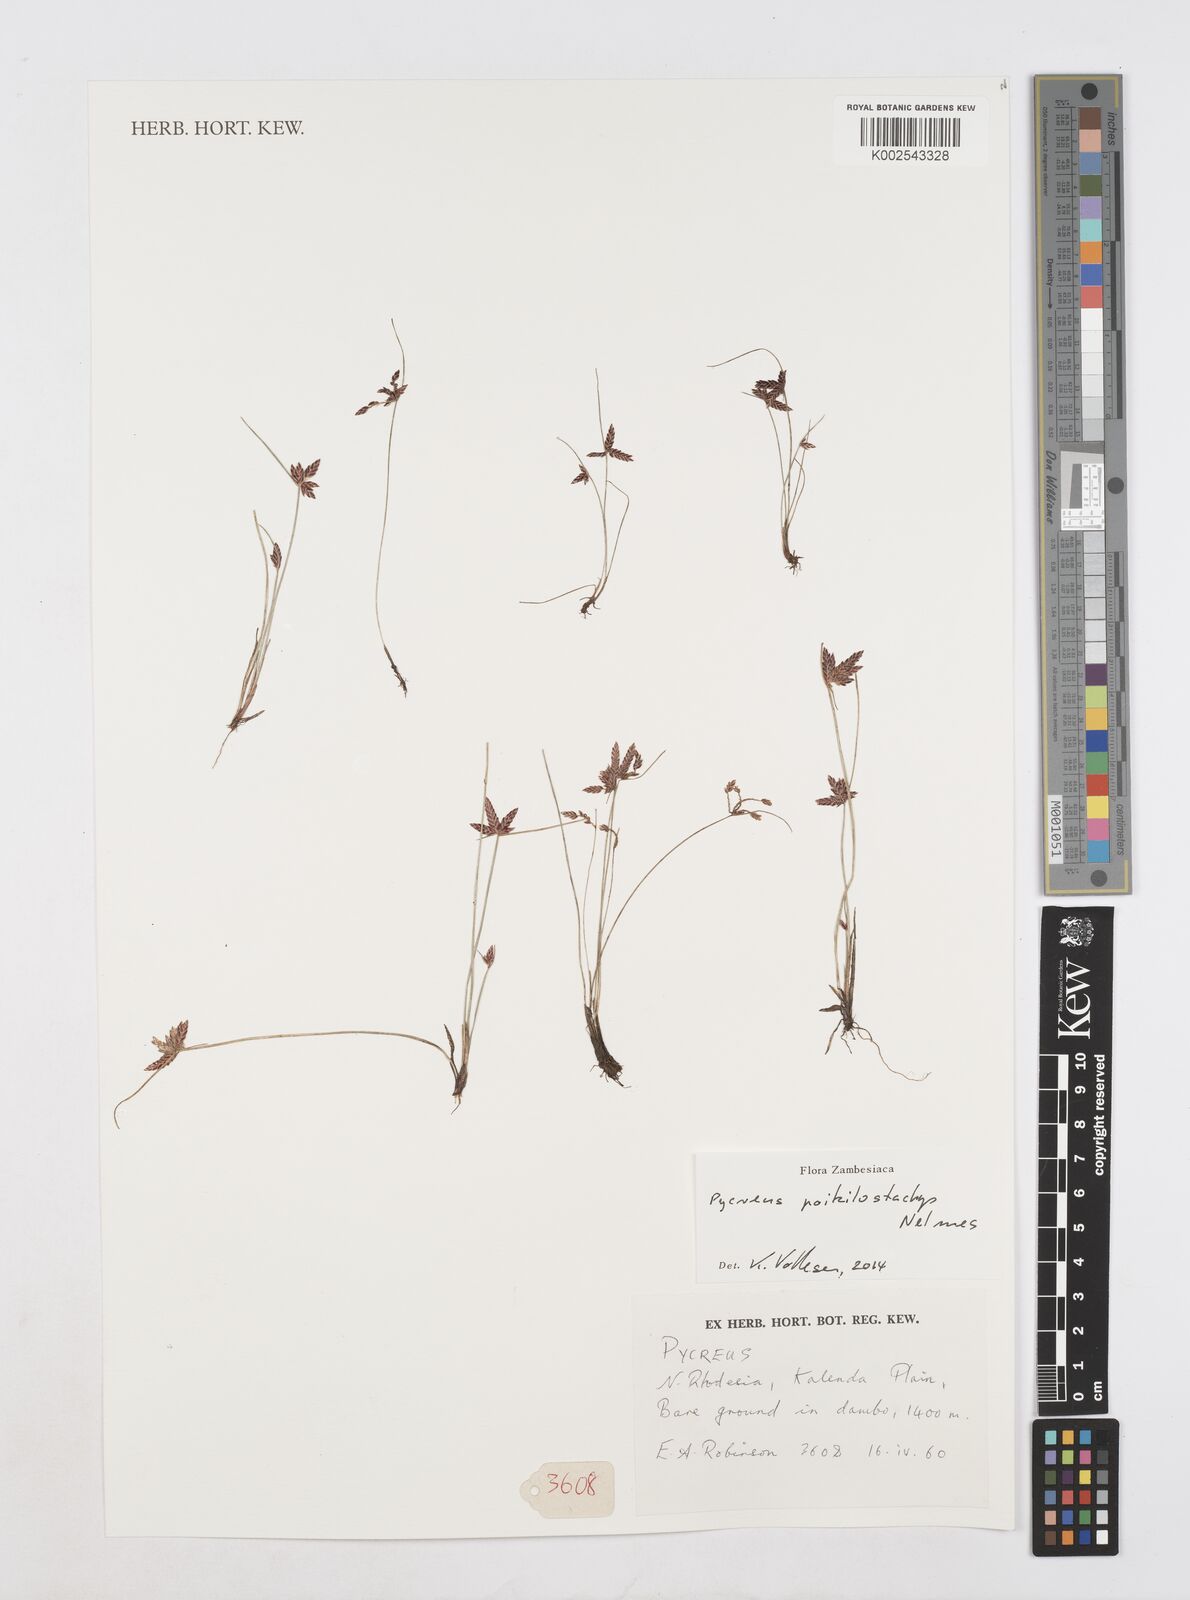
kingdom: Plantae
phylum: Tracheophyta
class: Liliopsida
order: Poales
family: Cyperaceae
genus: Cyperus
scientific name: Cyperus poikilostachys
